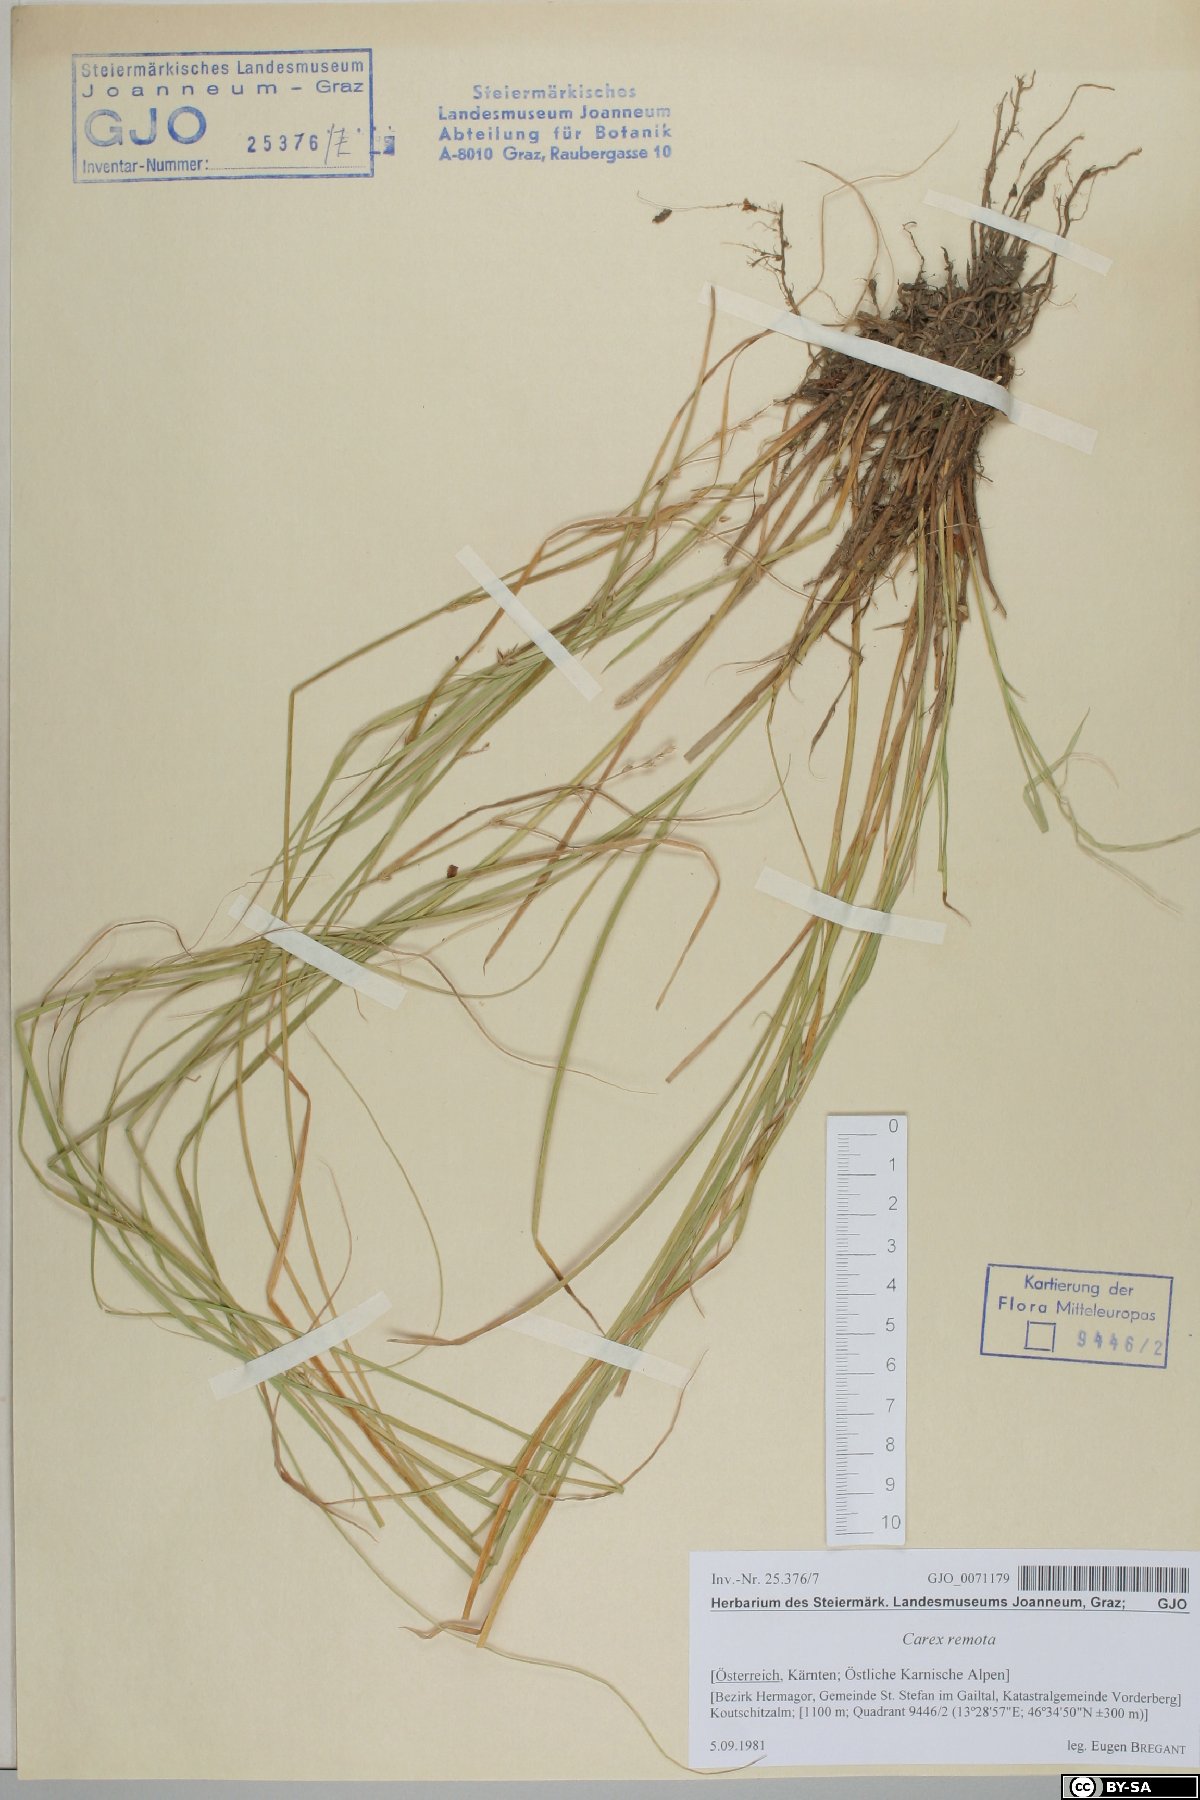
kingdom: Plantae
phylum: Tracheophyta
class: Liliopsida
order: Poales
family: Cyperaceae
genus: Carex
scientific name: Carex remota
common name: Remote sedge
